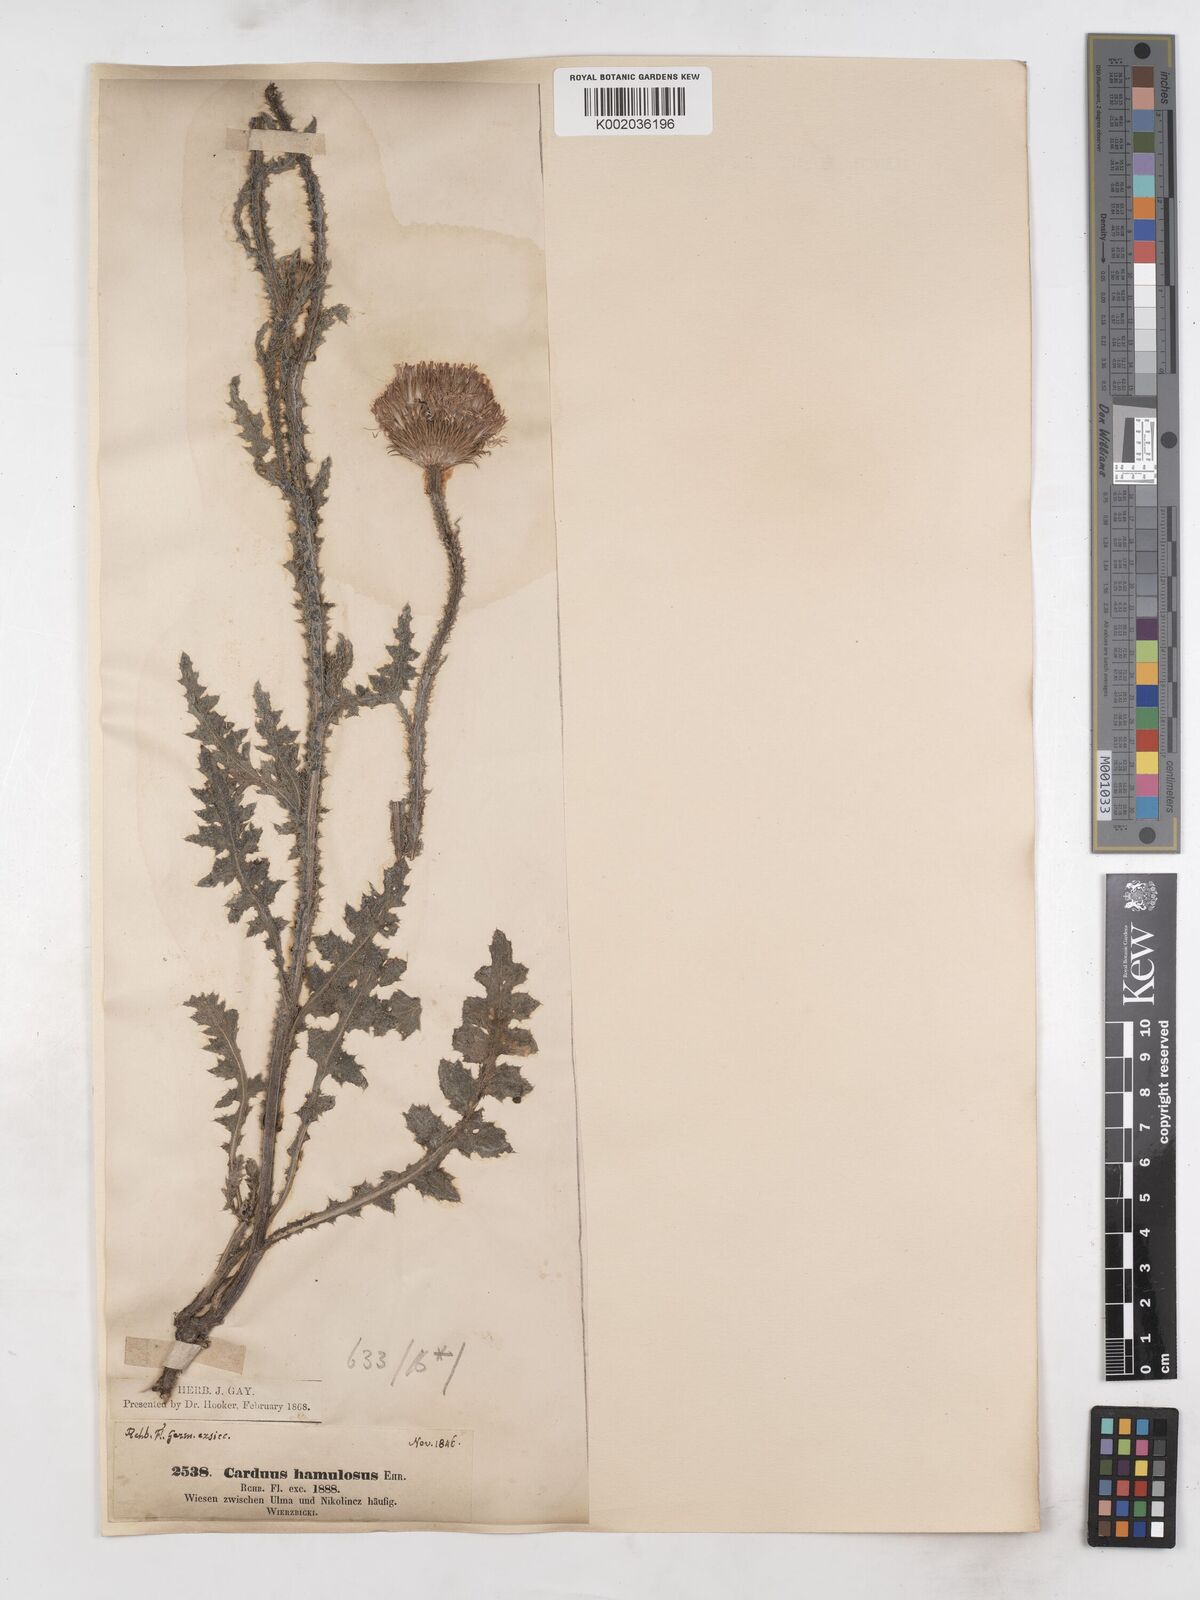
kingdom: Plantae
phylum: Tracheophyta
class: Magnoliopsida
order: Asterales
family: Asteraceae
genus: Carduus
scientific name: Carduus hamulosus
